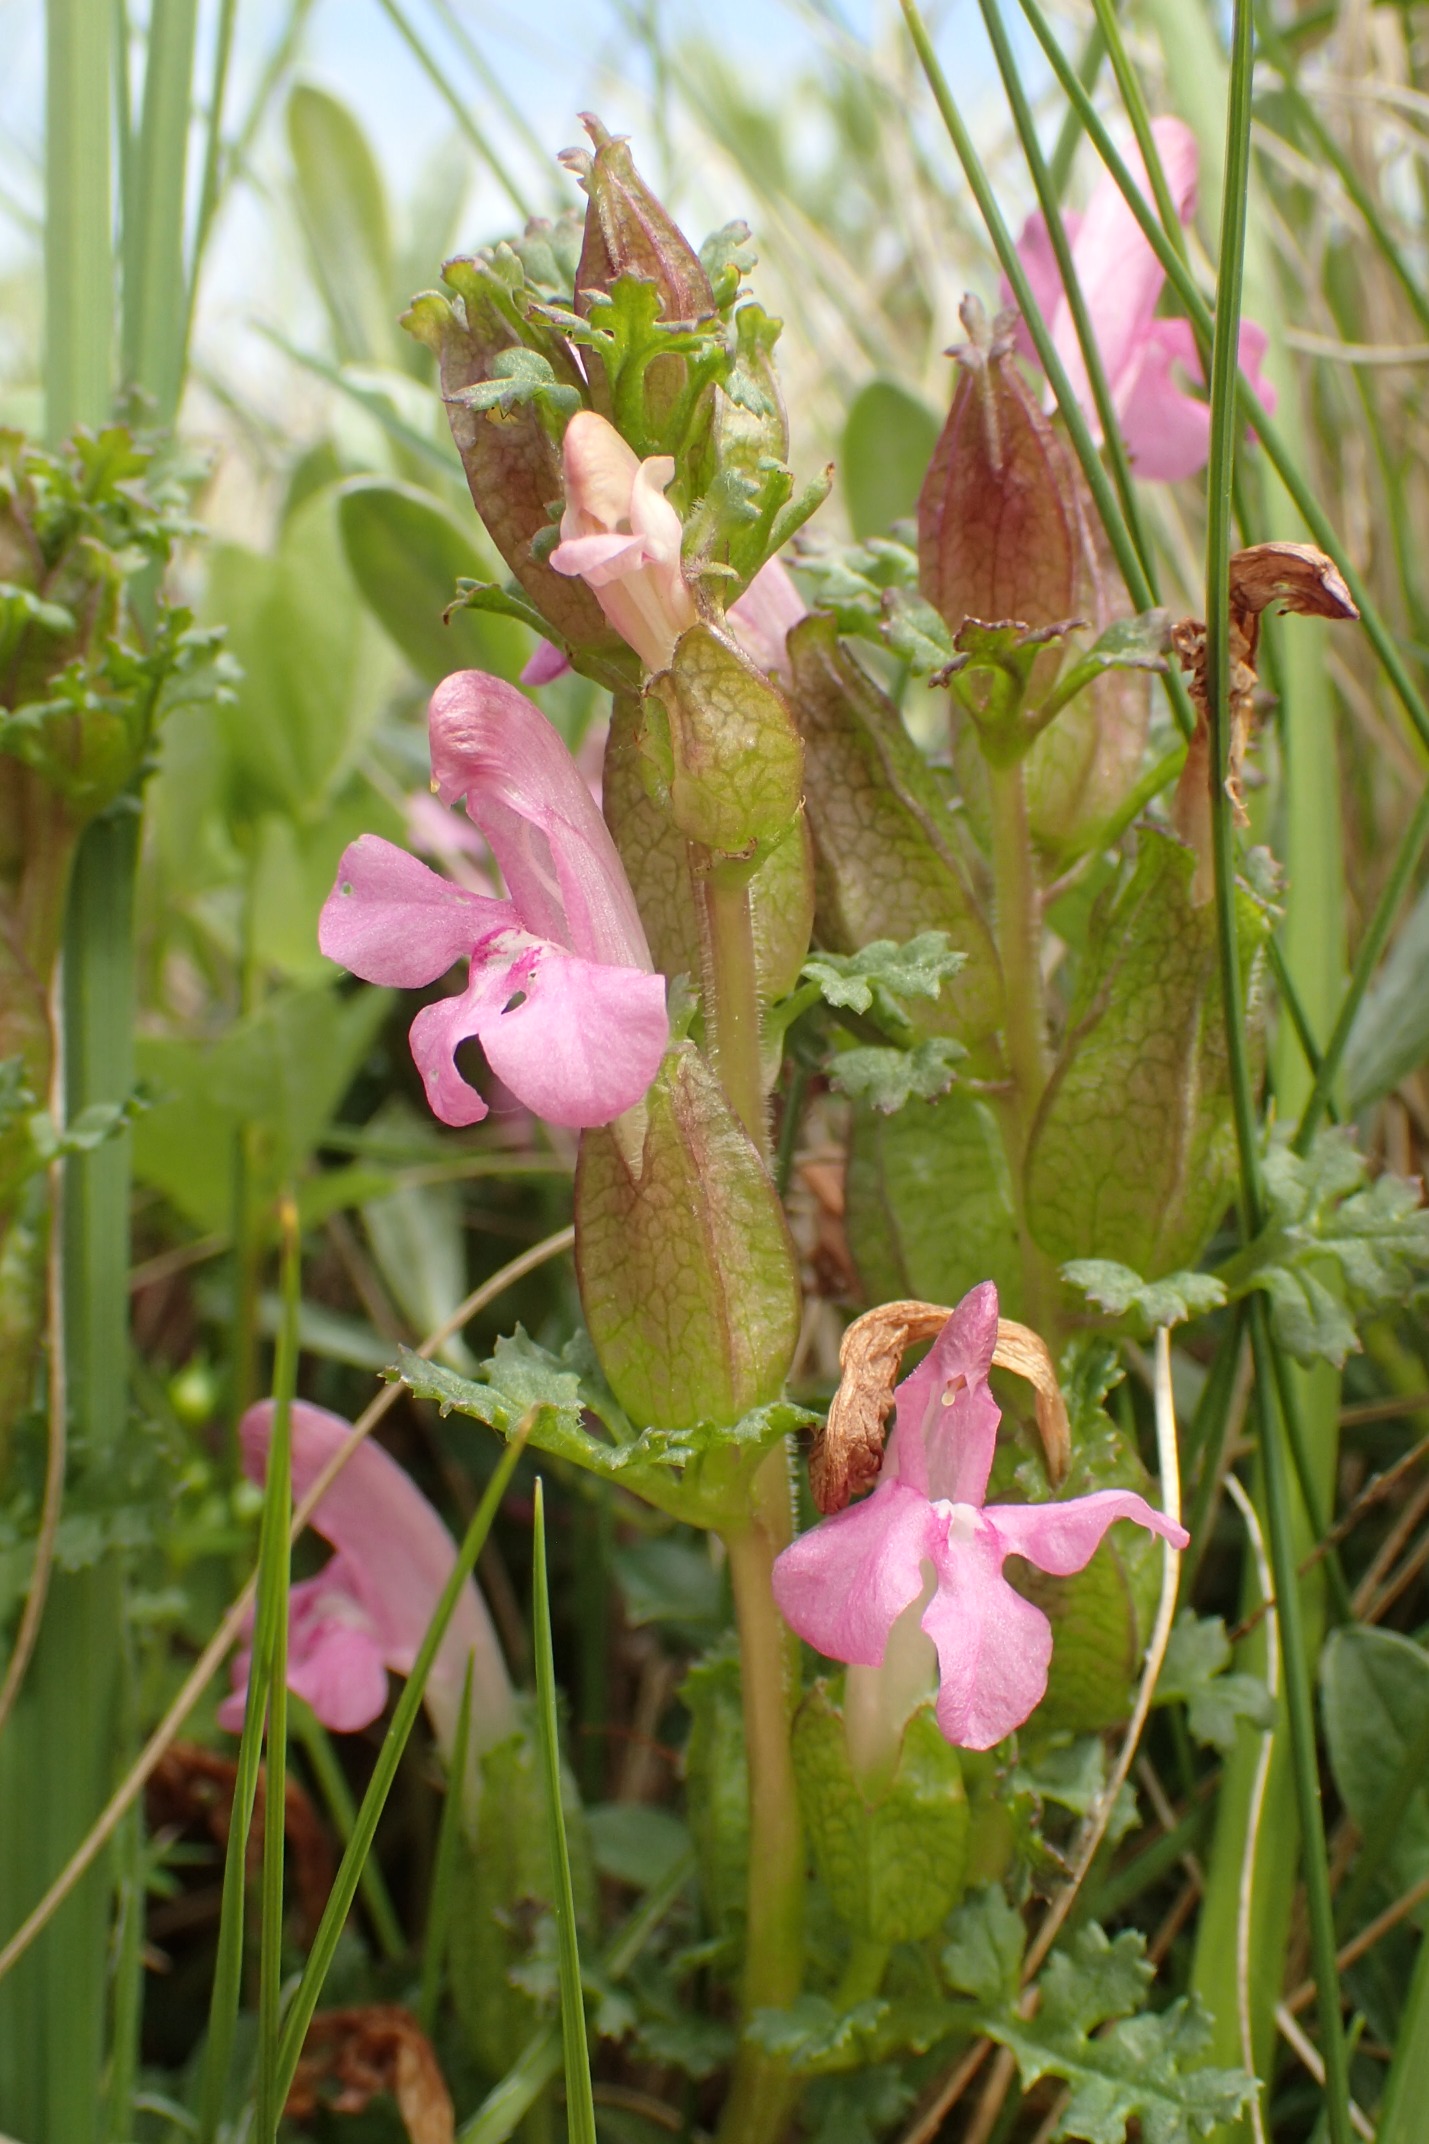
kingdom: Plantae
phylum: Tracheophyta
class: Magnoliopsida
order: Lamiales
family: Orobanchaceae
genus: Pedicularis
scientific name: Pedicularis sylvatica
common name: Mose-troldurt
